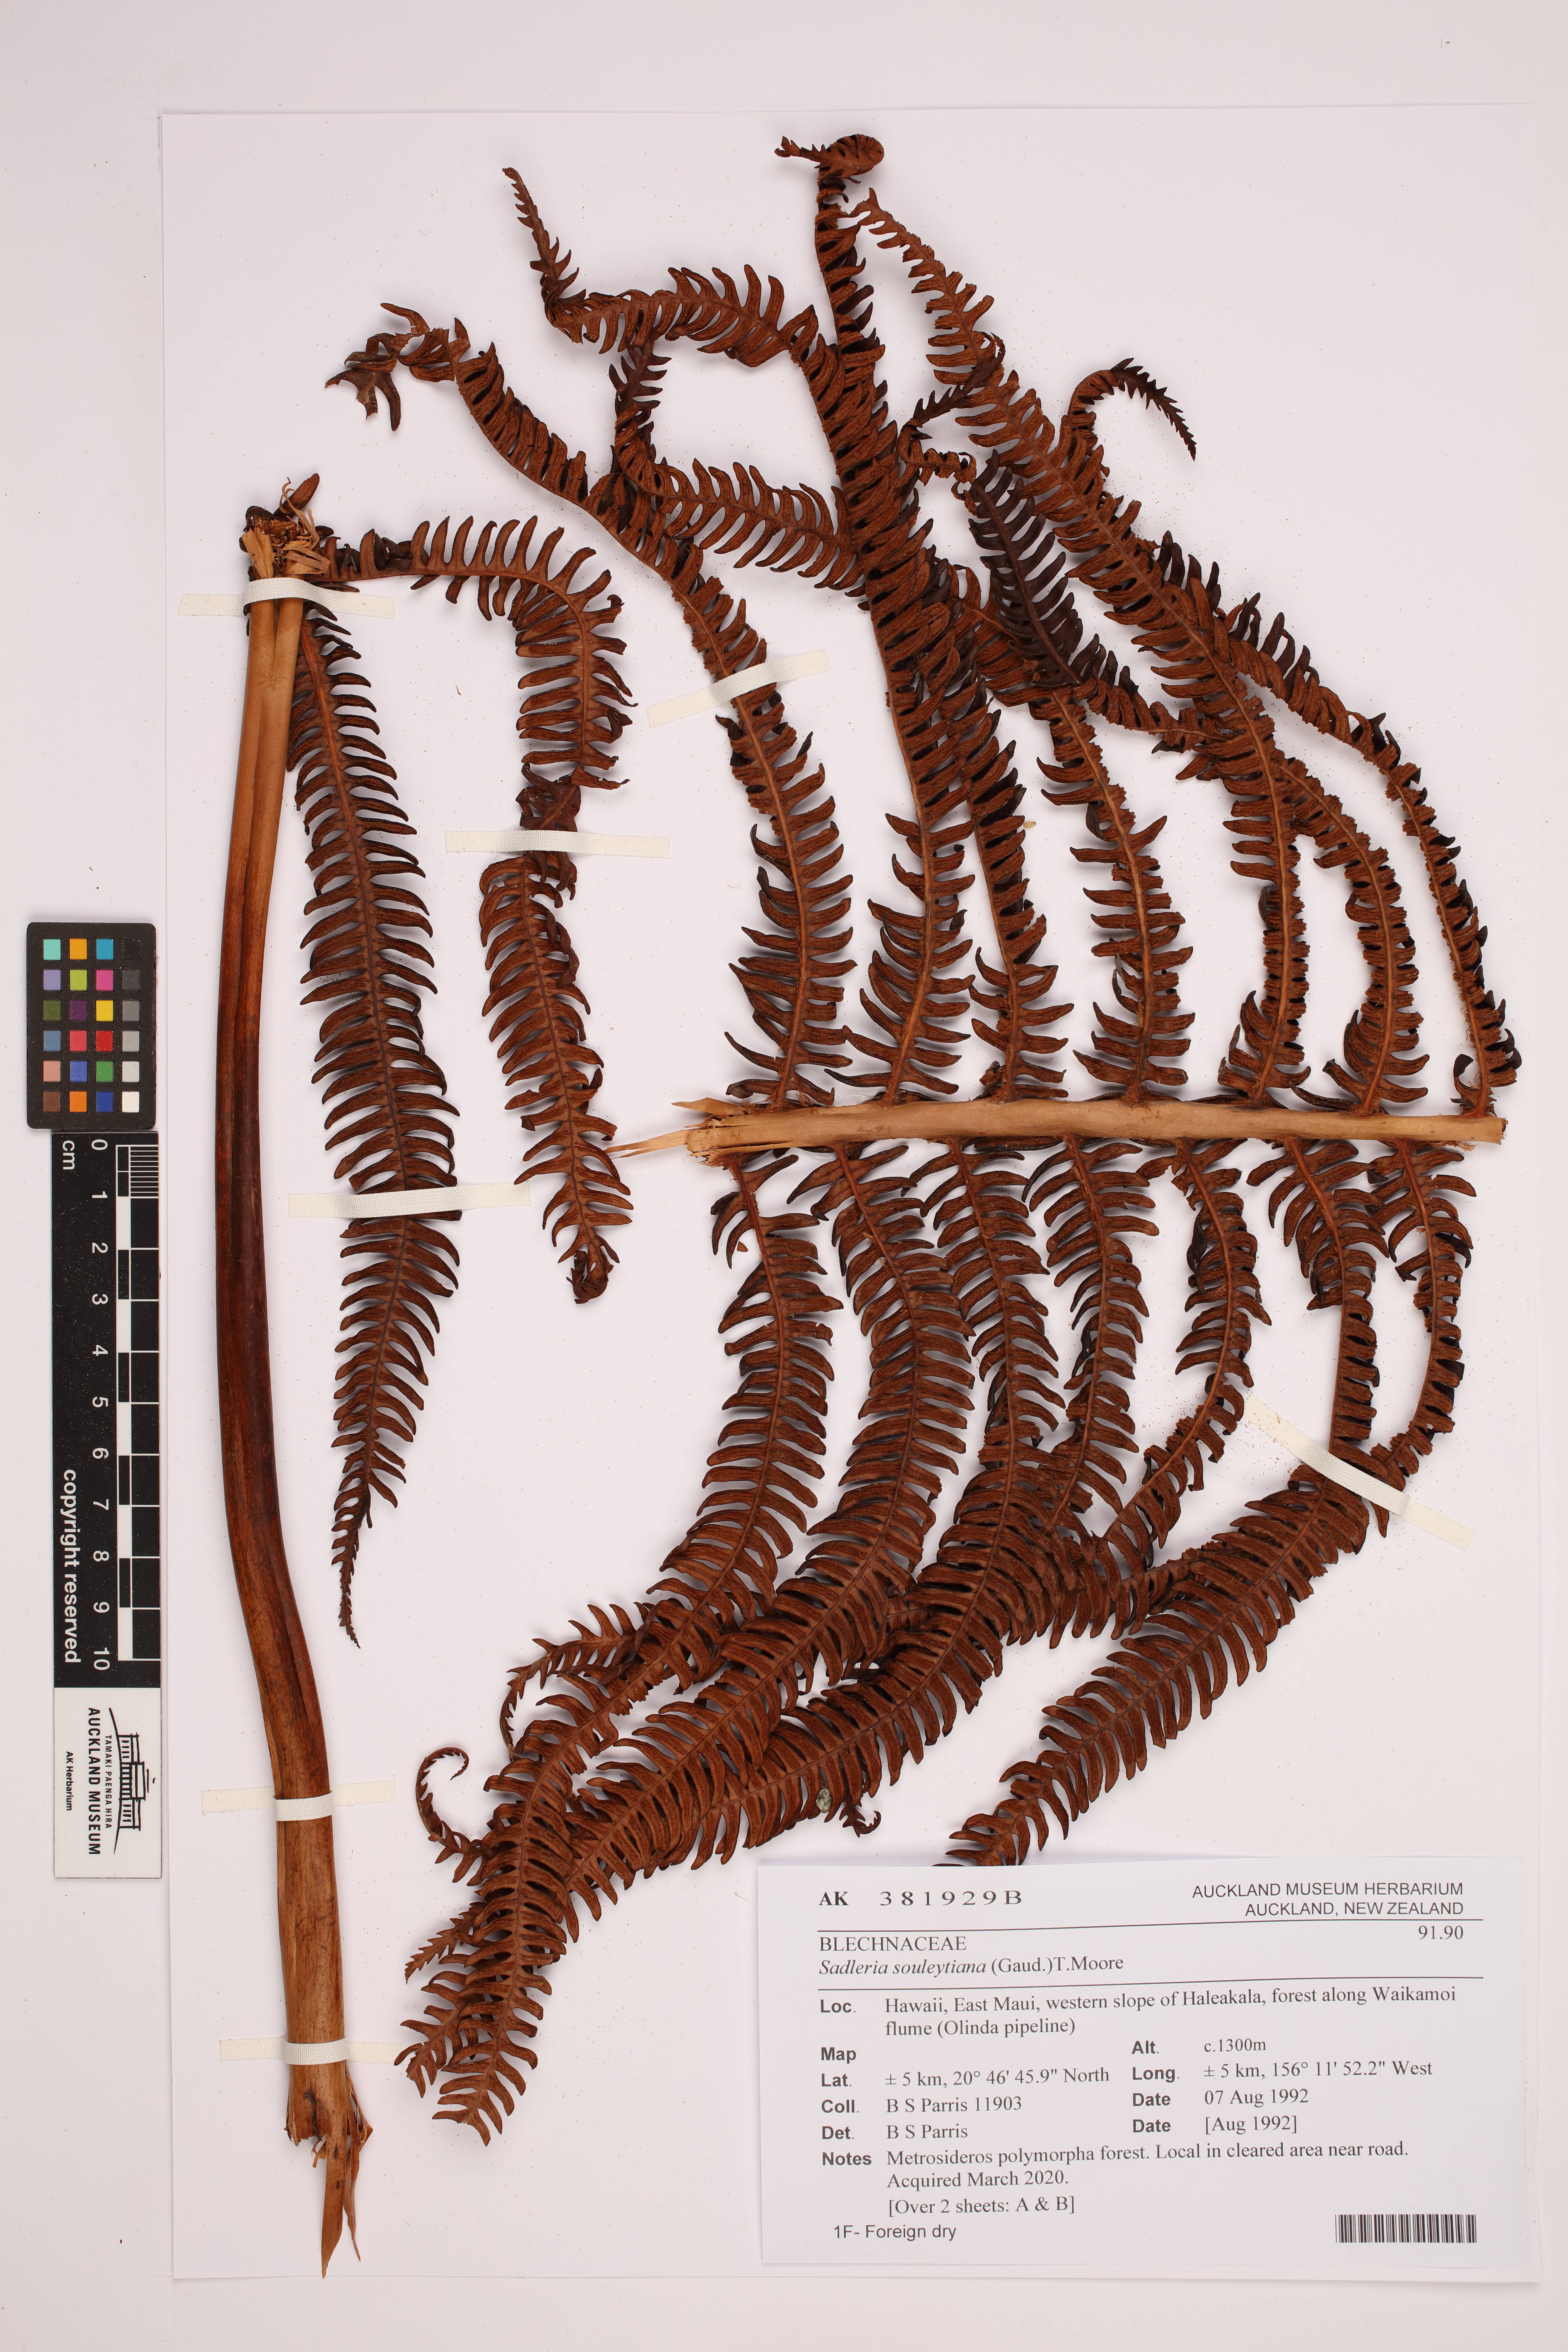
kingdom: Plantae
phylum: Tracheophyta
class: Polypodiopsida
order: Polypodiales
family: Blechnaceae
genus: Sadleria
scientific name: Sadleria souleytiana
